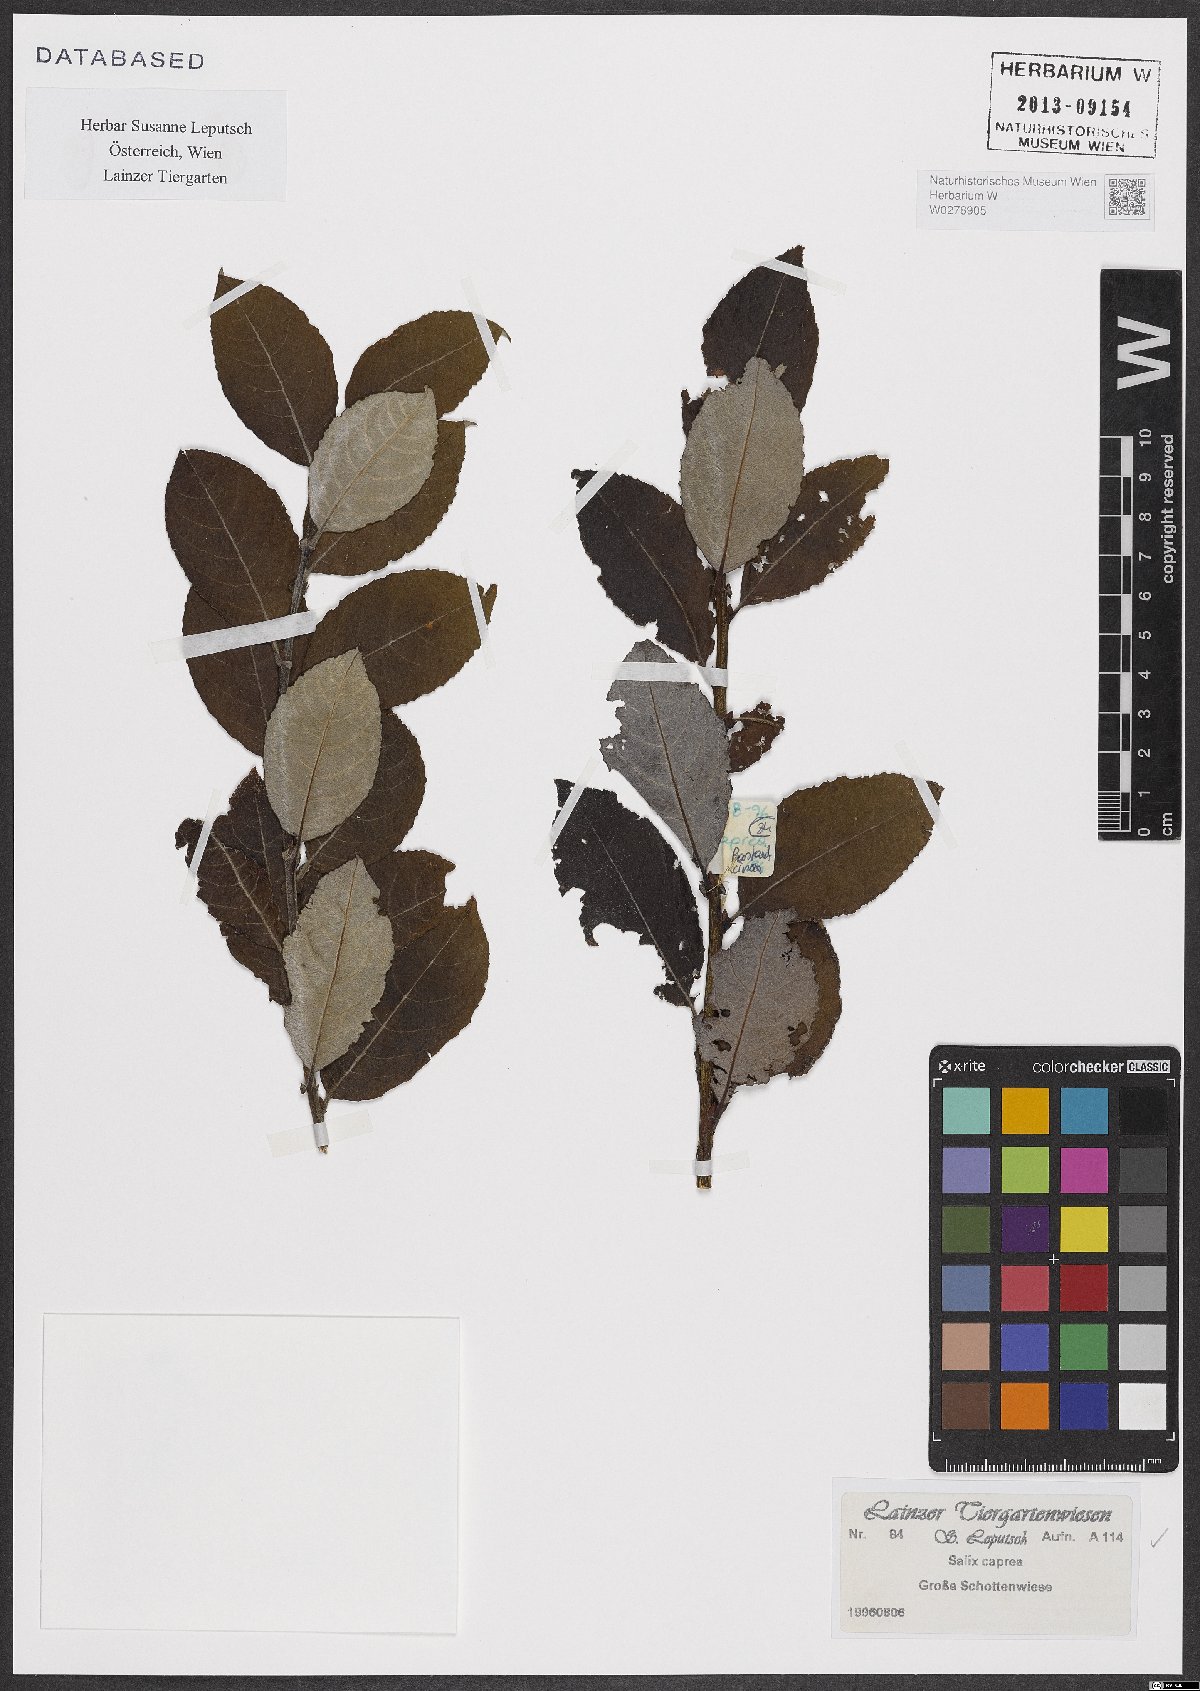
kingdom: Plantae
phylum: Tracheophyta
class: Magnoliopsida
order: Malpighiales
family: Salicaceae
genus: Salix
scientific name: Salix caprea
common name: Goat willow
